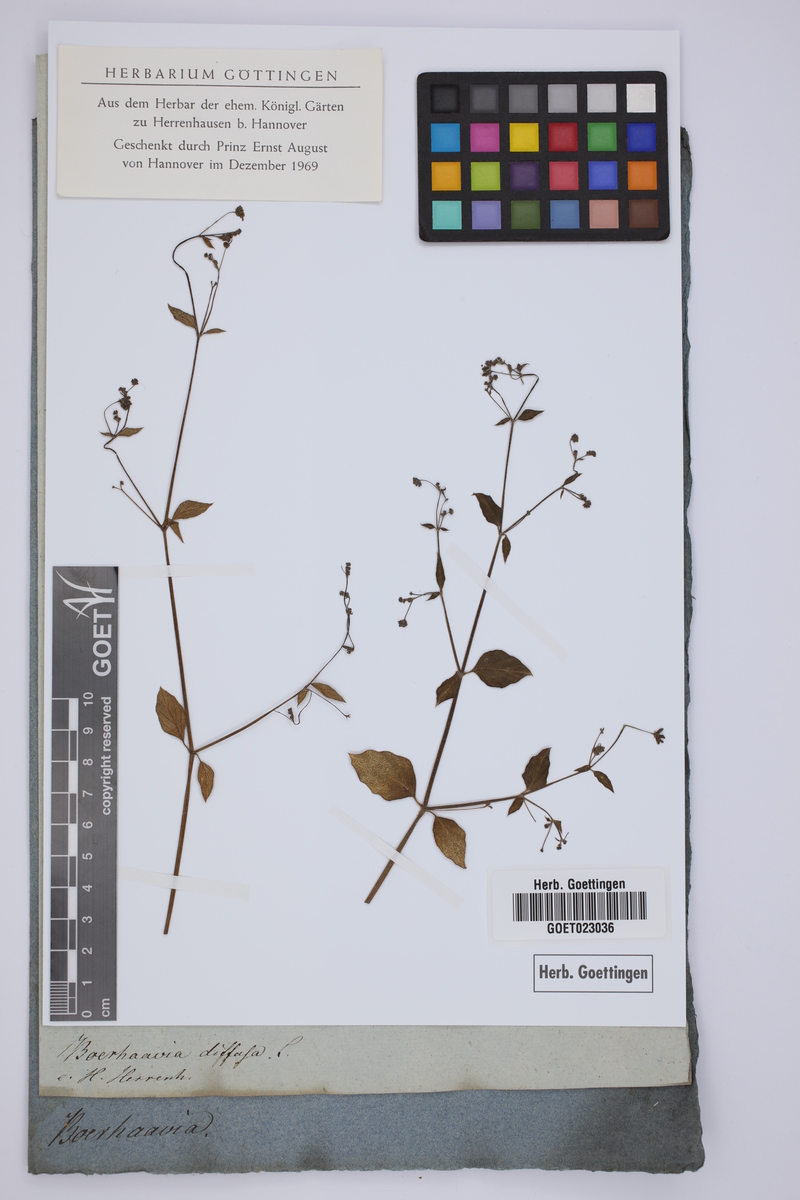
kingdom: Plantae
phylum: Tracheophyta
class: Magnoliopsida
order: Caryophyllales
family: Nyctaginaceae
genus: Boerhavia
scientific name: Boerhavia diffusa
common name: Red spiderling
